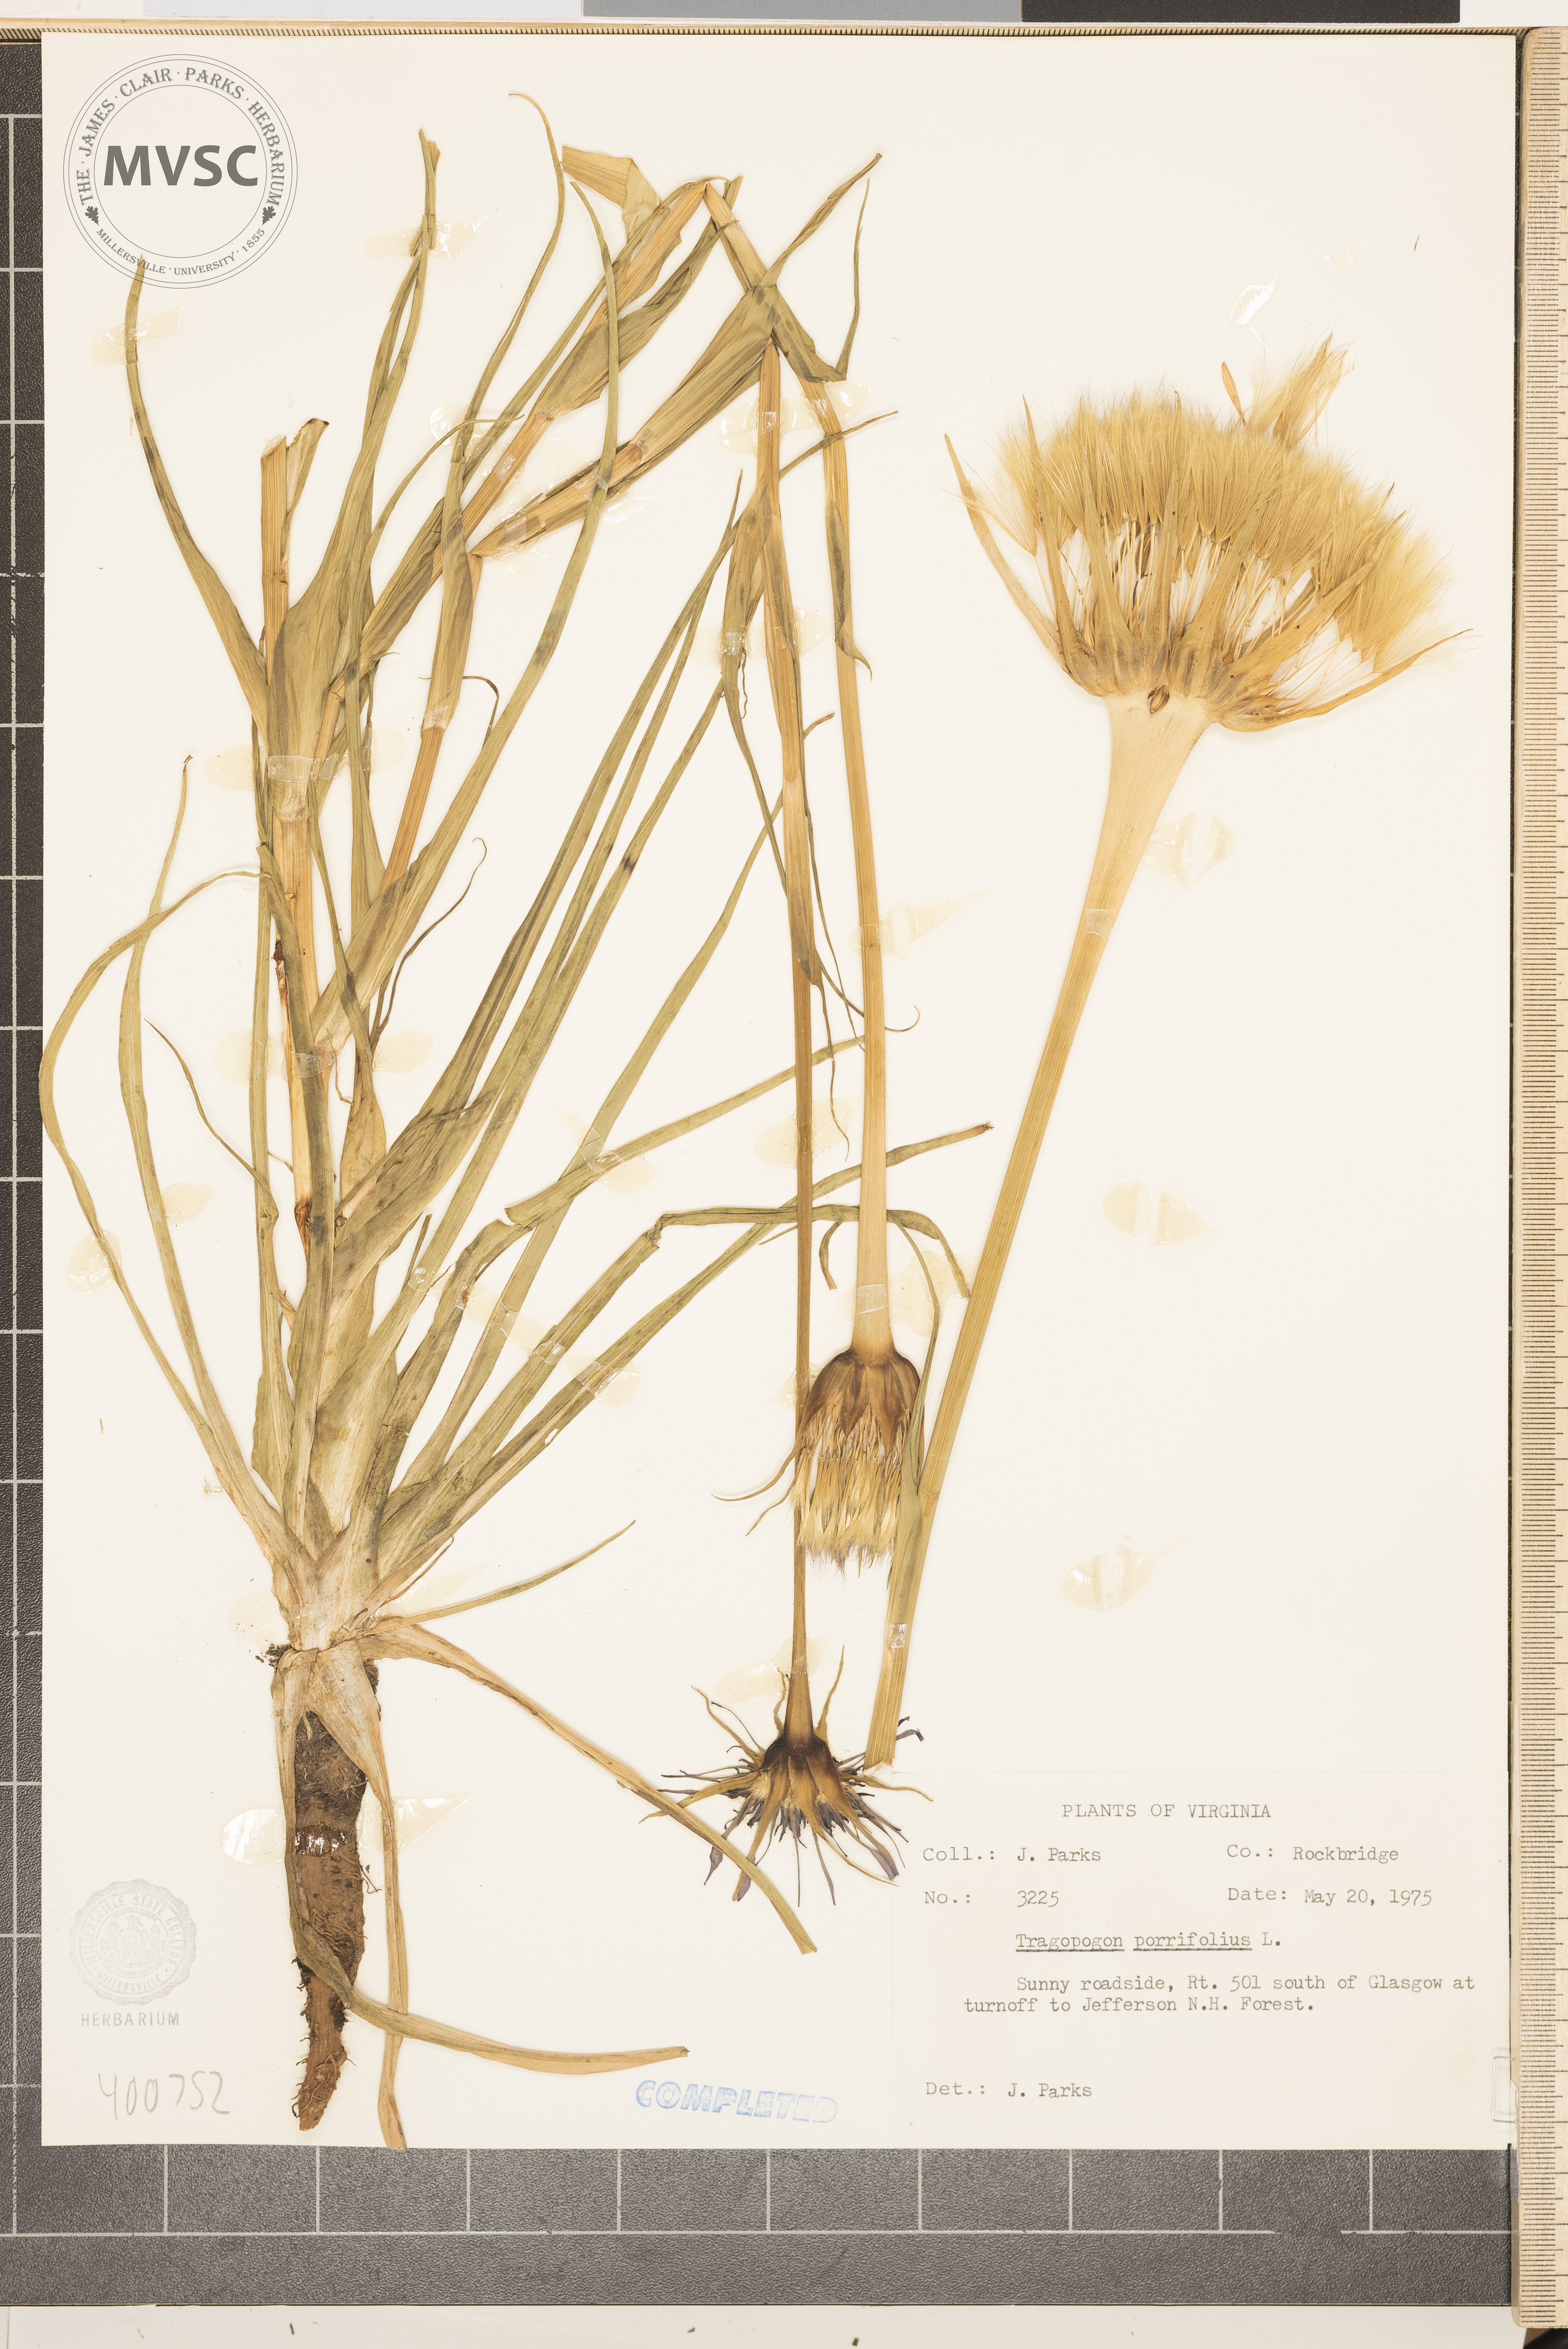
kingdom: Plantae
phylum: Tracheophyta
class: Magnoliopsida
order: Asterales
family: Asteraceae
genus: Tragopogon
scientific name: Tragopogon porrifolius
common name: Salsify
